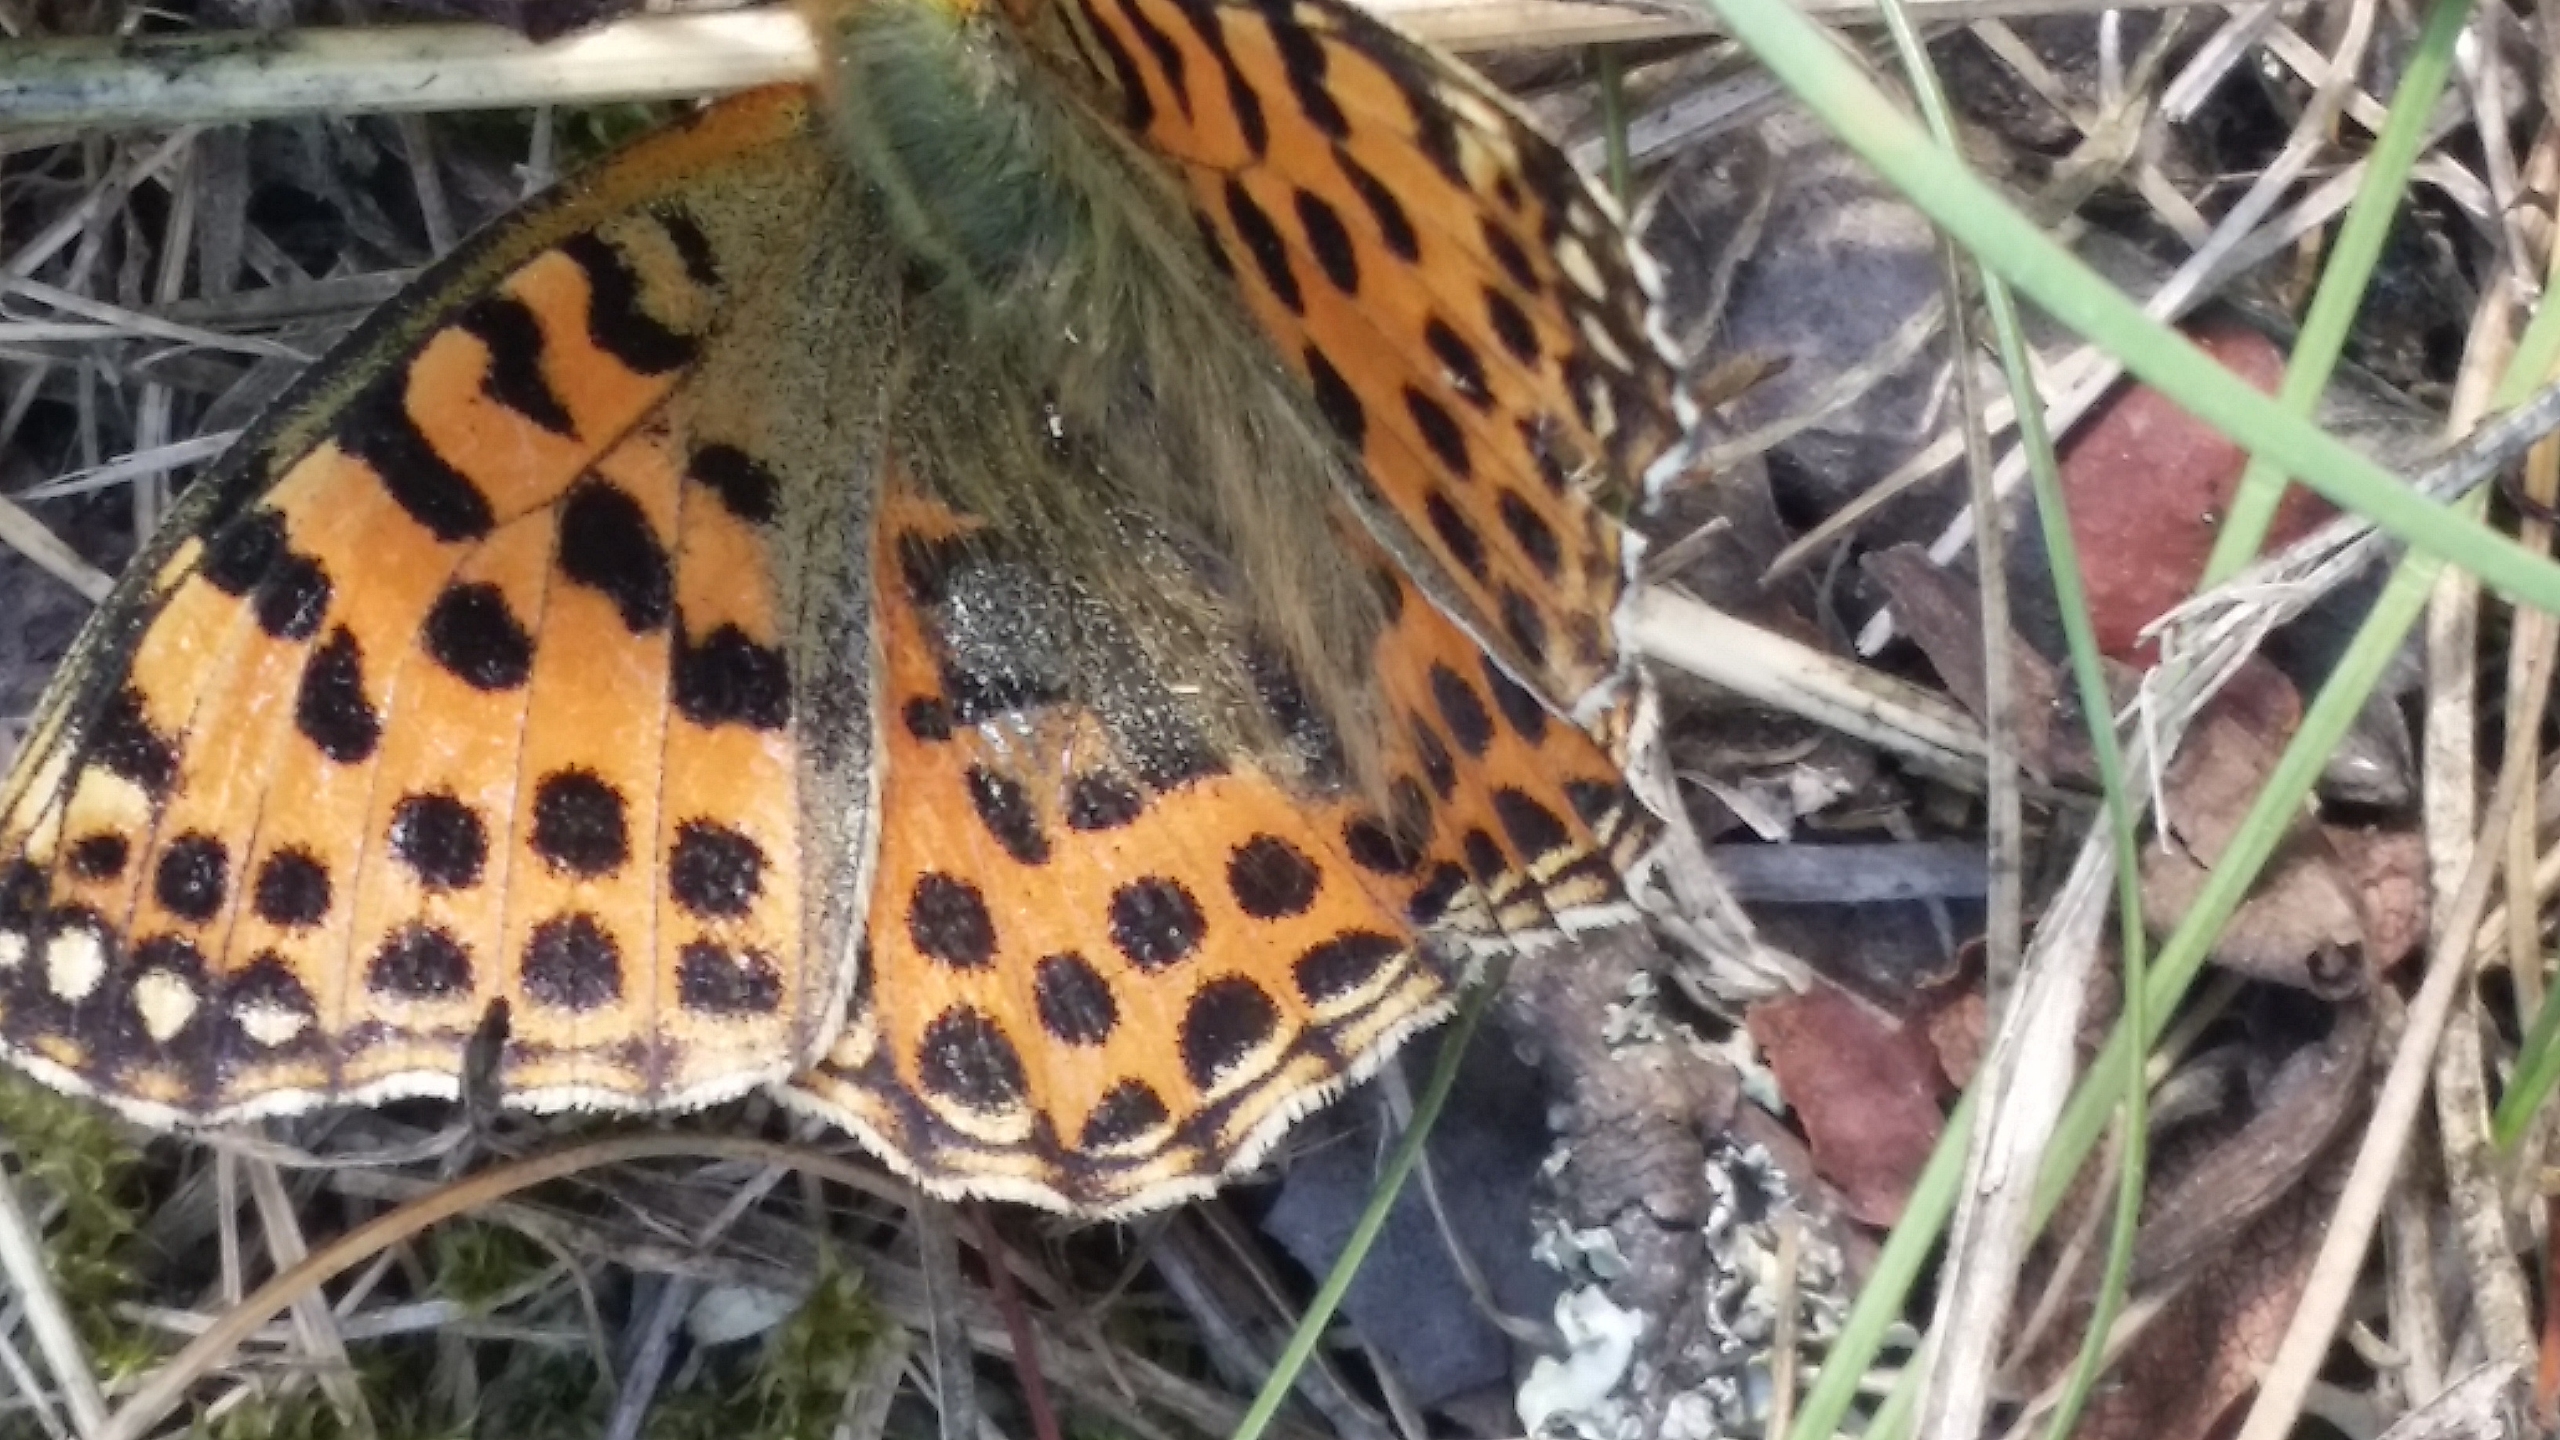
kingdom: Animalia
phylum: Arthropoda
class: Insecta
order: Lepidoptera
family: Nymphalidae
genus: Issoria
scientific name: Issoria lathonia
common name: Storplettet perlemorsommerfugl
